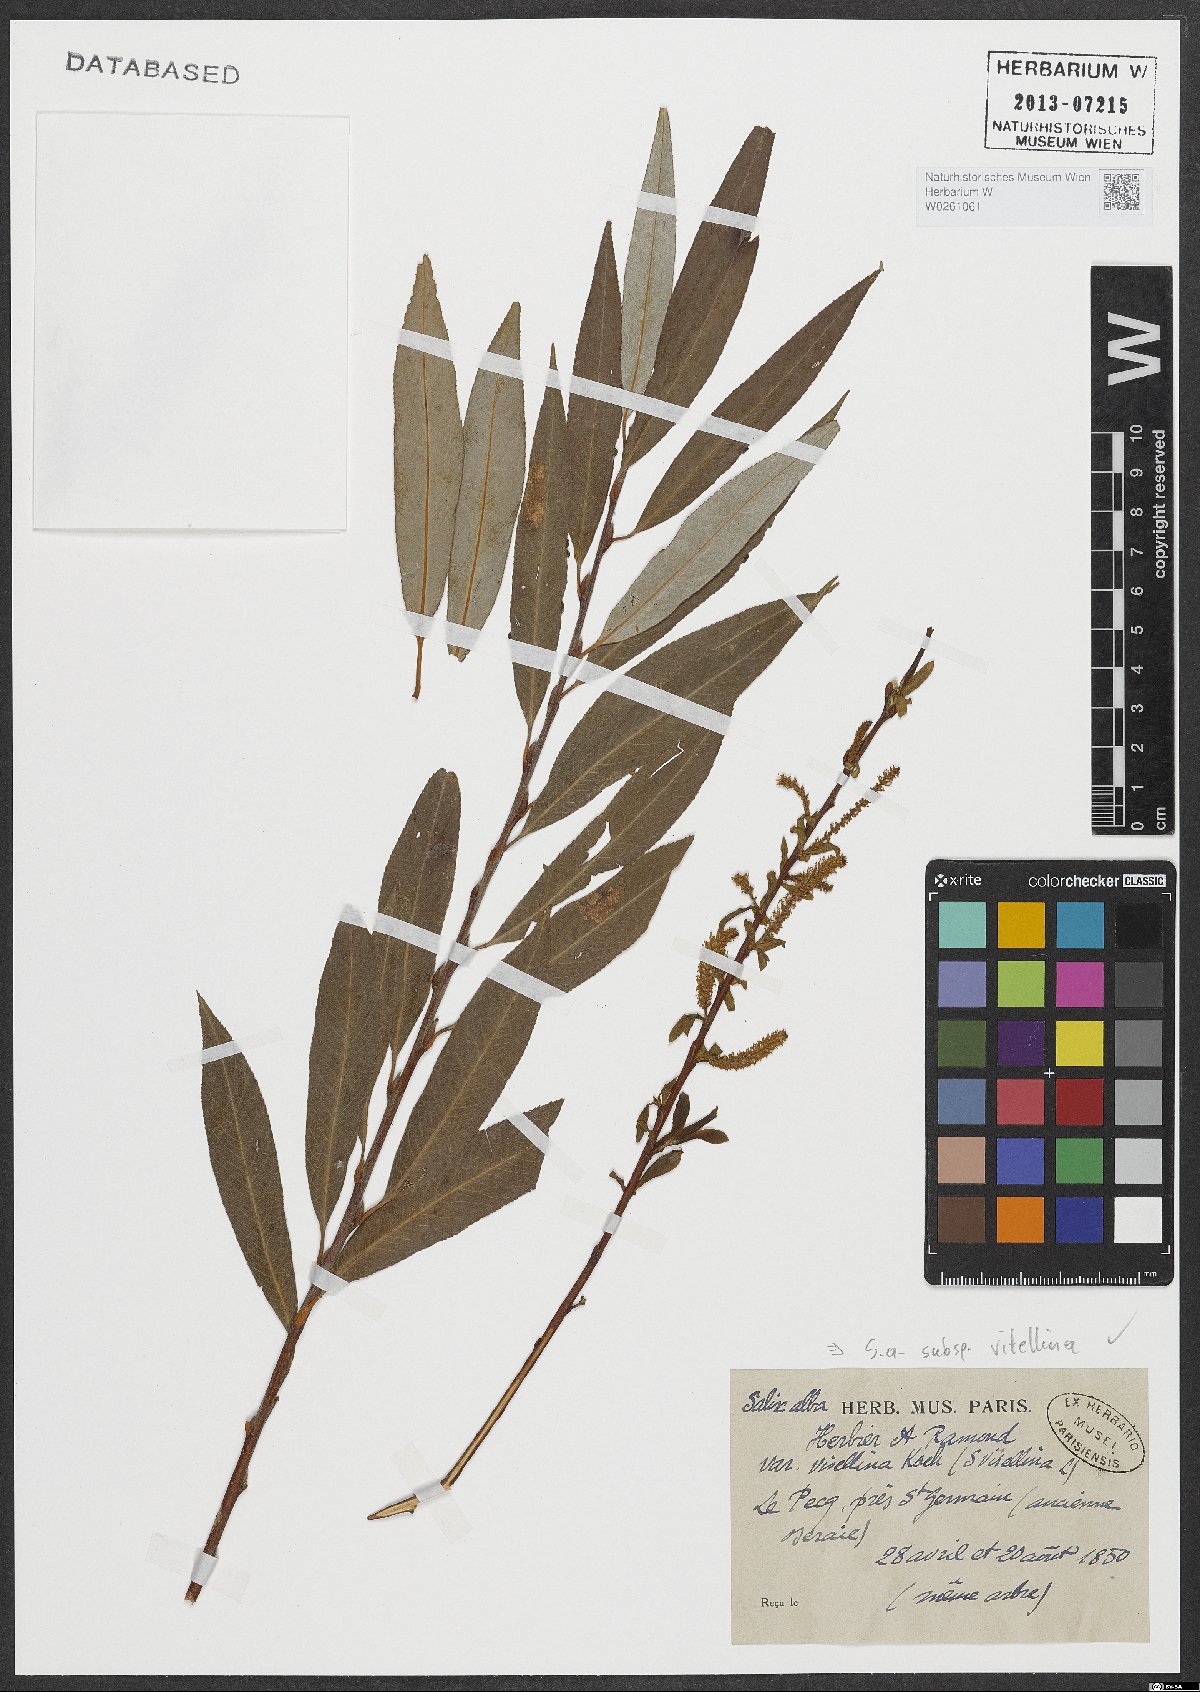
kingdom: Plantae
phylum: Tracheophyta
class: Magnoliopsida
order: Malpighiales
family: Salicaceae
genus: Salix
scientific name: Salix alba
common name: White willow
